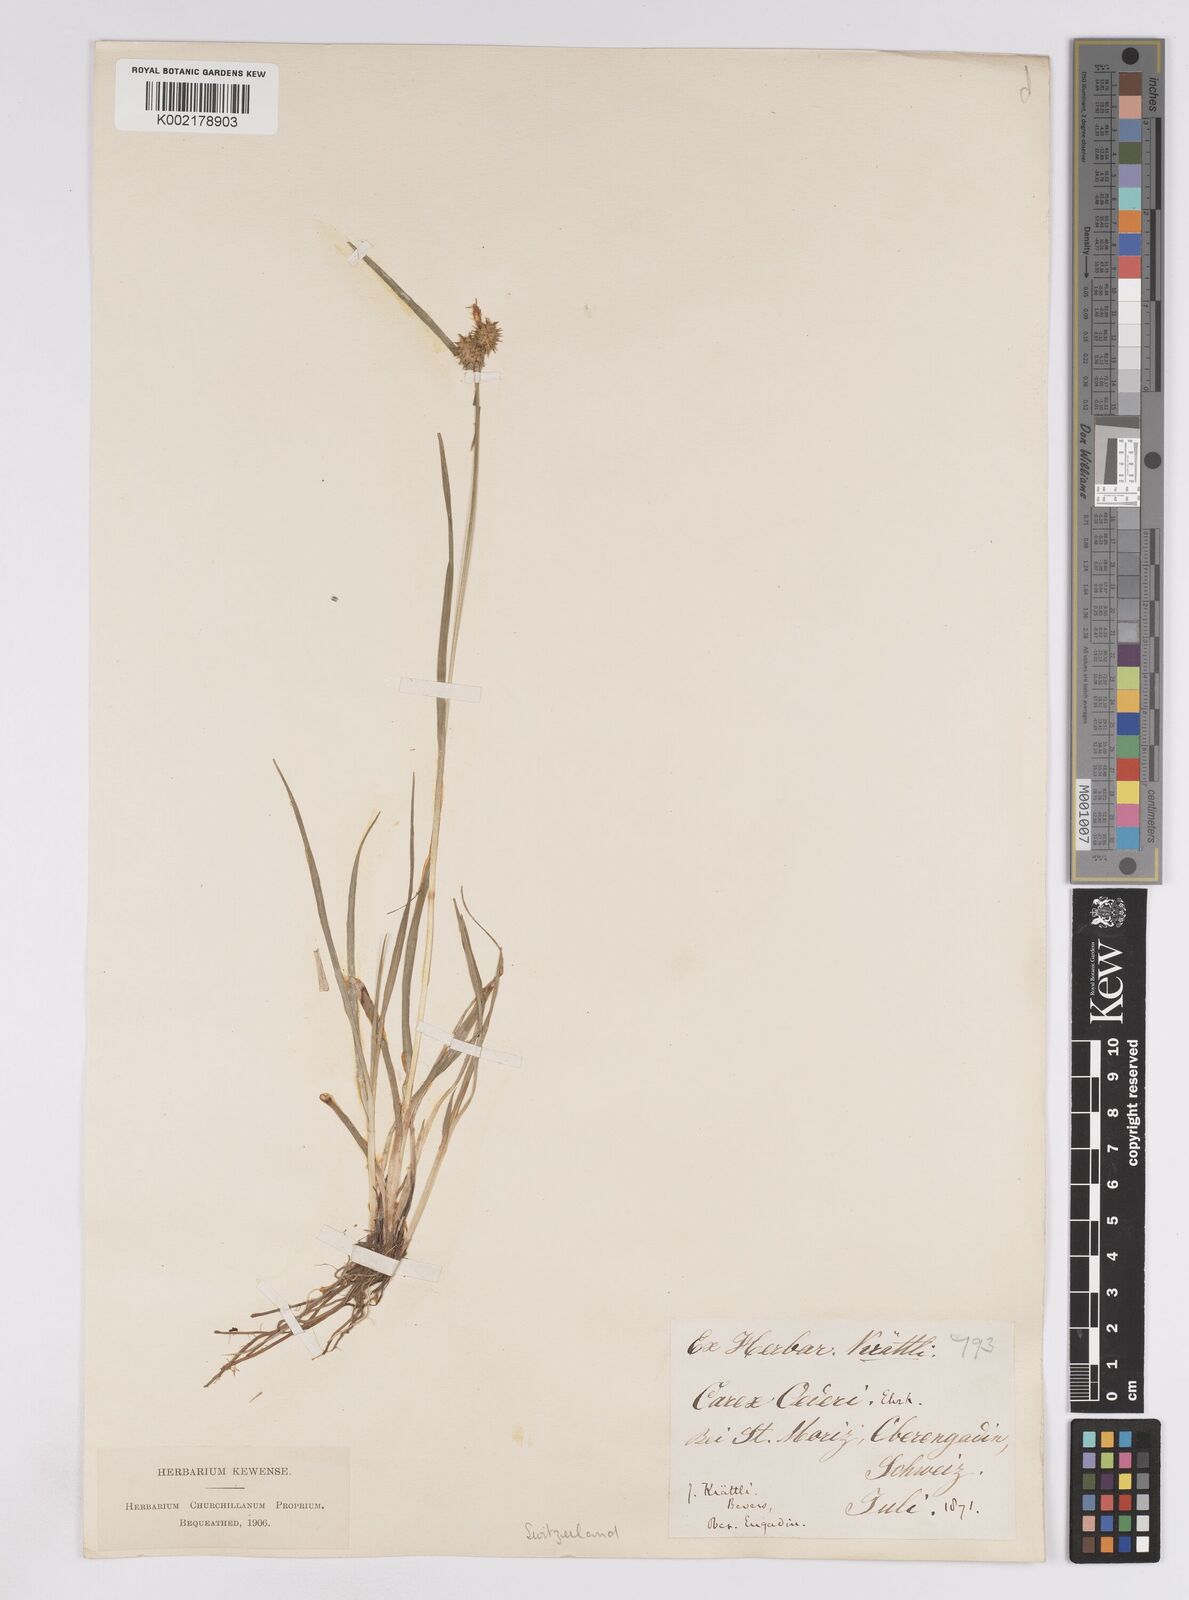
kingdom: Plantae
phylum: Tracheophyta
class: Liliopsida
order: Poales
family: Cyperaceae
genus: Carex
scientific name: Carex lepidocarpa
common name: Long-stalked yellow-sedge
